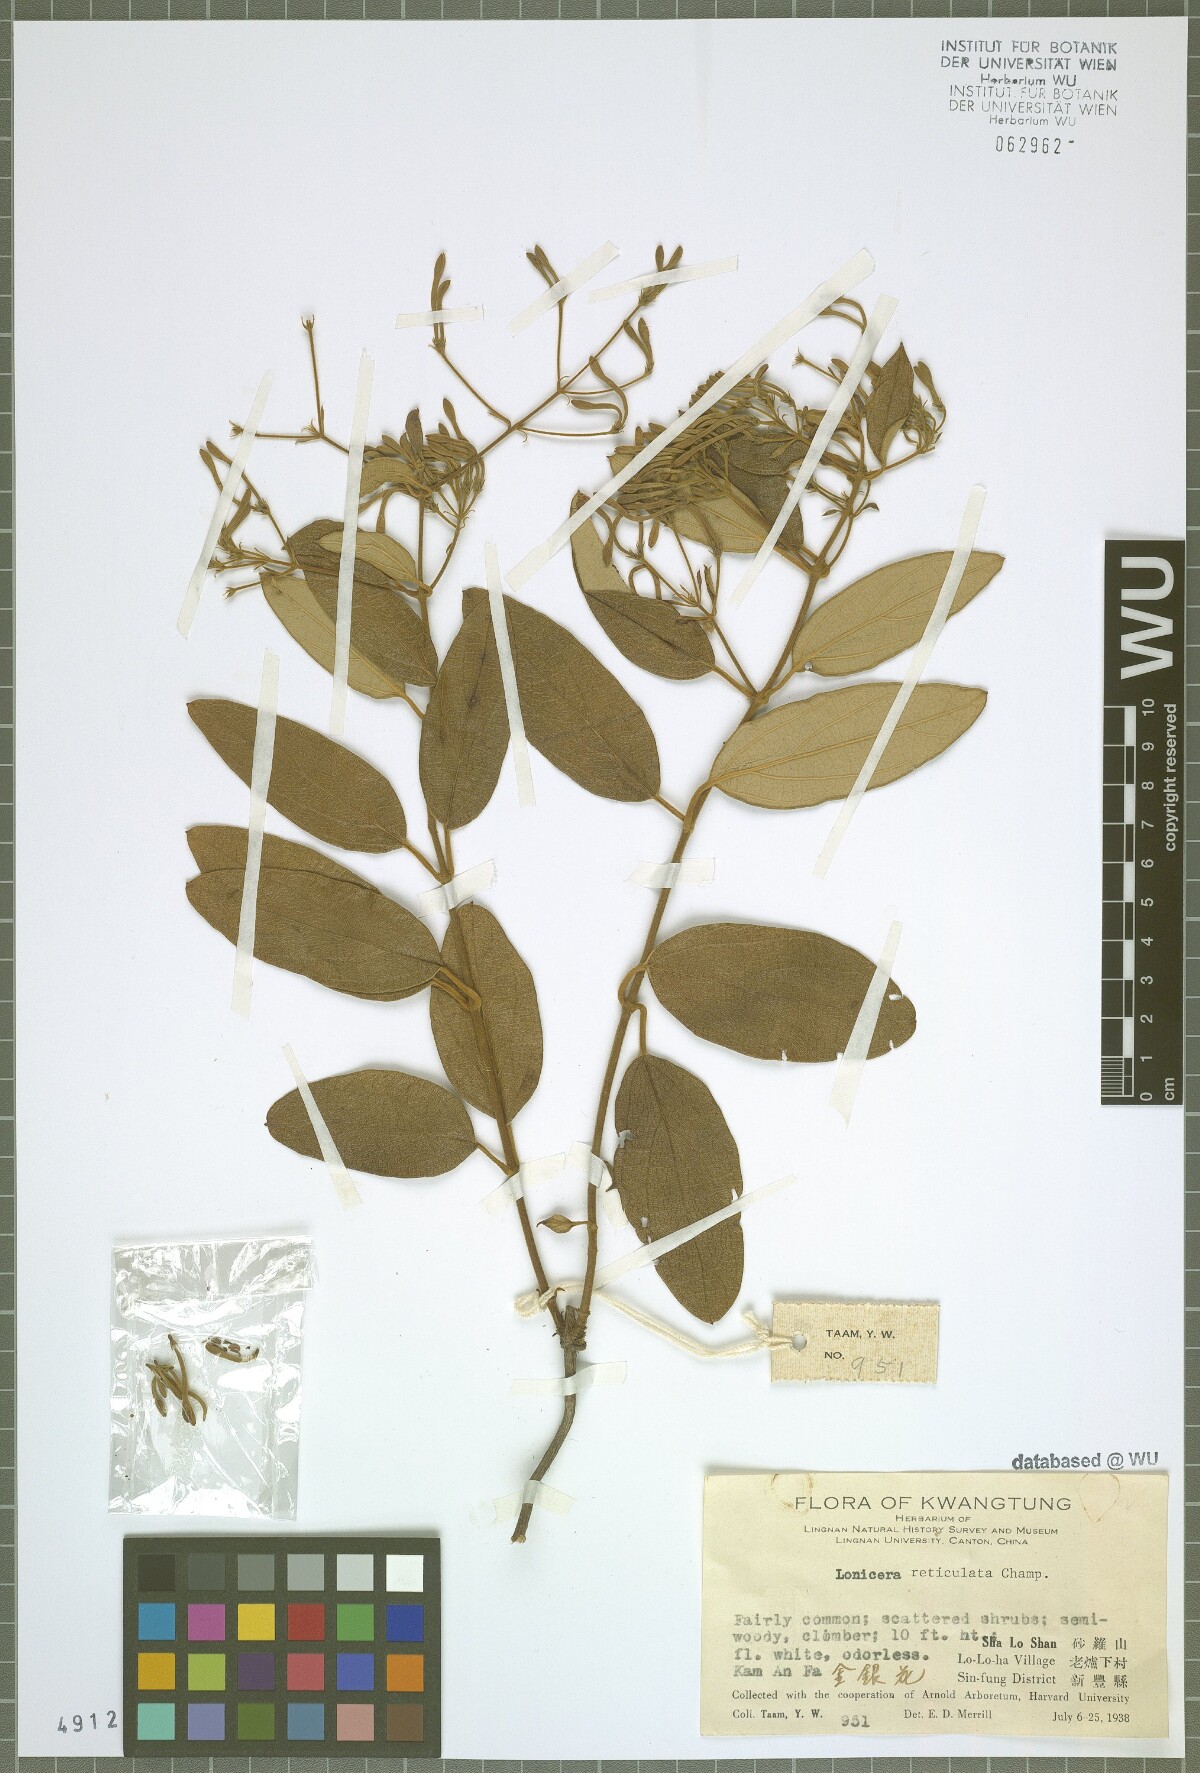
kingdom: Plantae
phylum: Tracheophyta
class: Magnoliopsida
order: Dipsacales
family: Caprifoliaceae
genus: Lonicera
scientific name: Lonicera reticulata
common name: Grape honeysuckle
